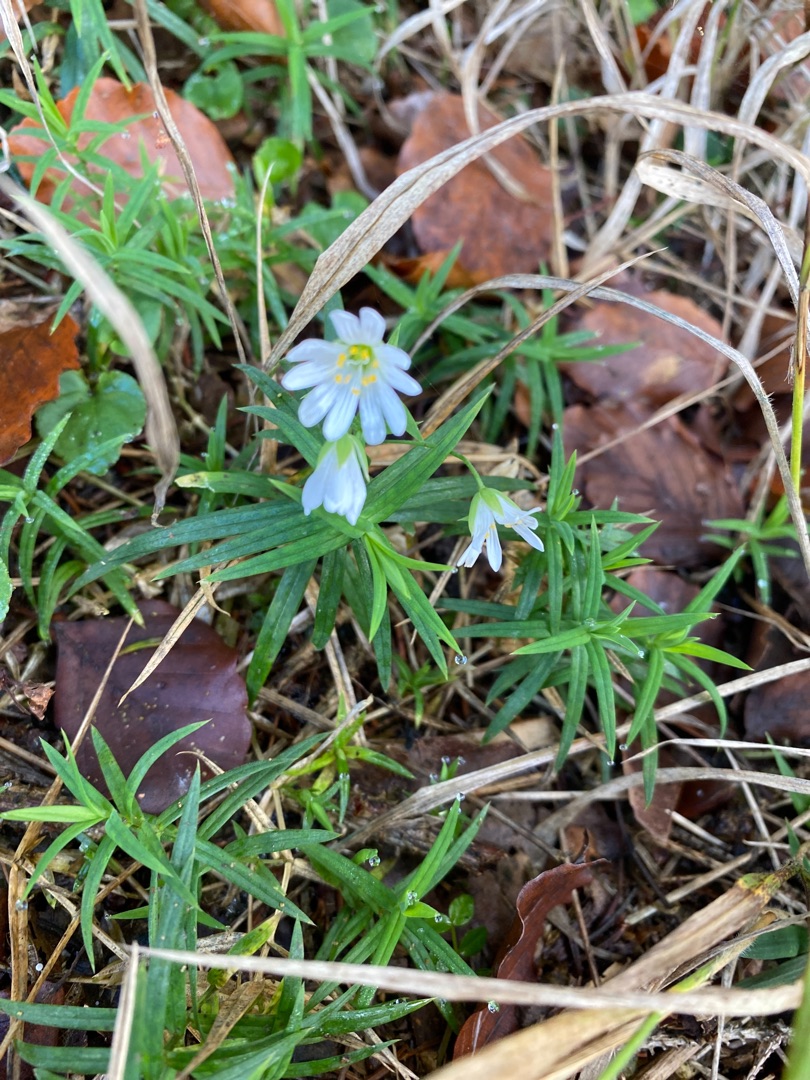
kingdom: Plantae
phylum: Tracheophyta
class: Magnoliopsida
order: Caryophyllales
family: Caryophyllaceae
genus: Rabelera
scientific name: Rabelera holostea
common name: Stor fladstjerne
